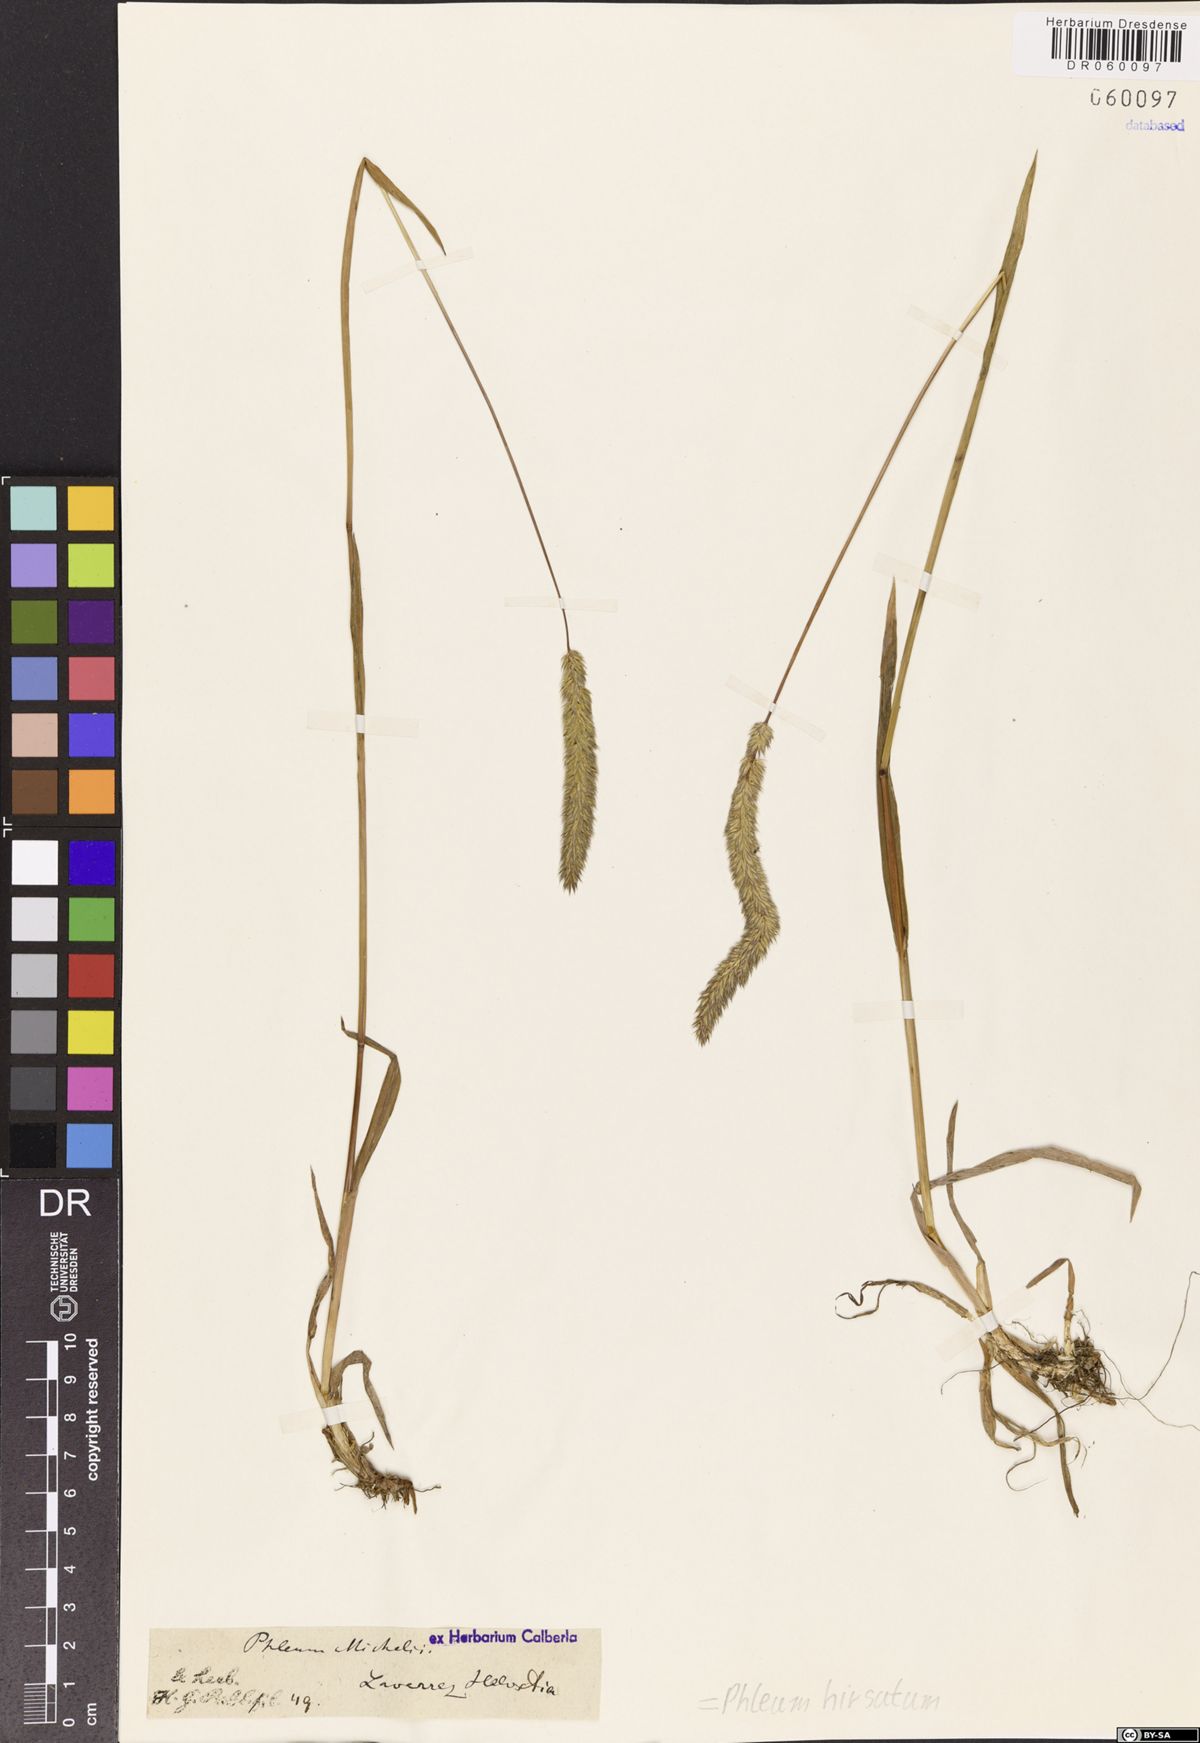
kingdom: Plantae
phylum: Tracheophyta
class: Liliopsida
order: Poales
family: Poaceae
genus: Phleum
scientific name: Phleum hirsutum
